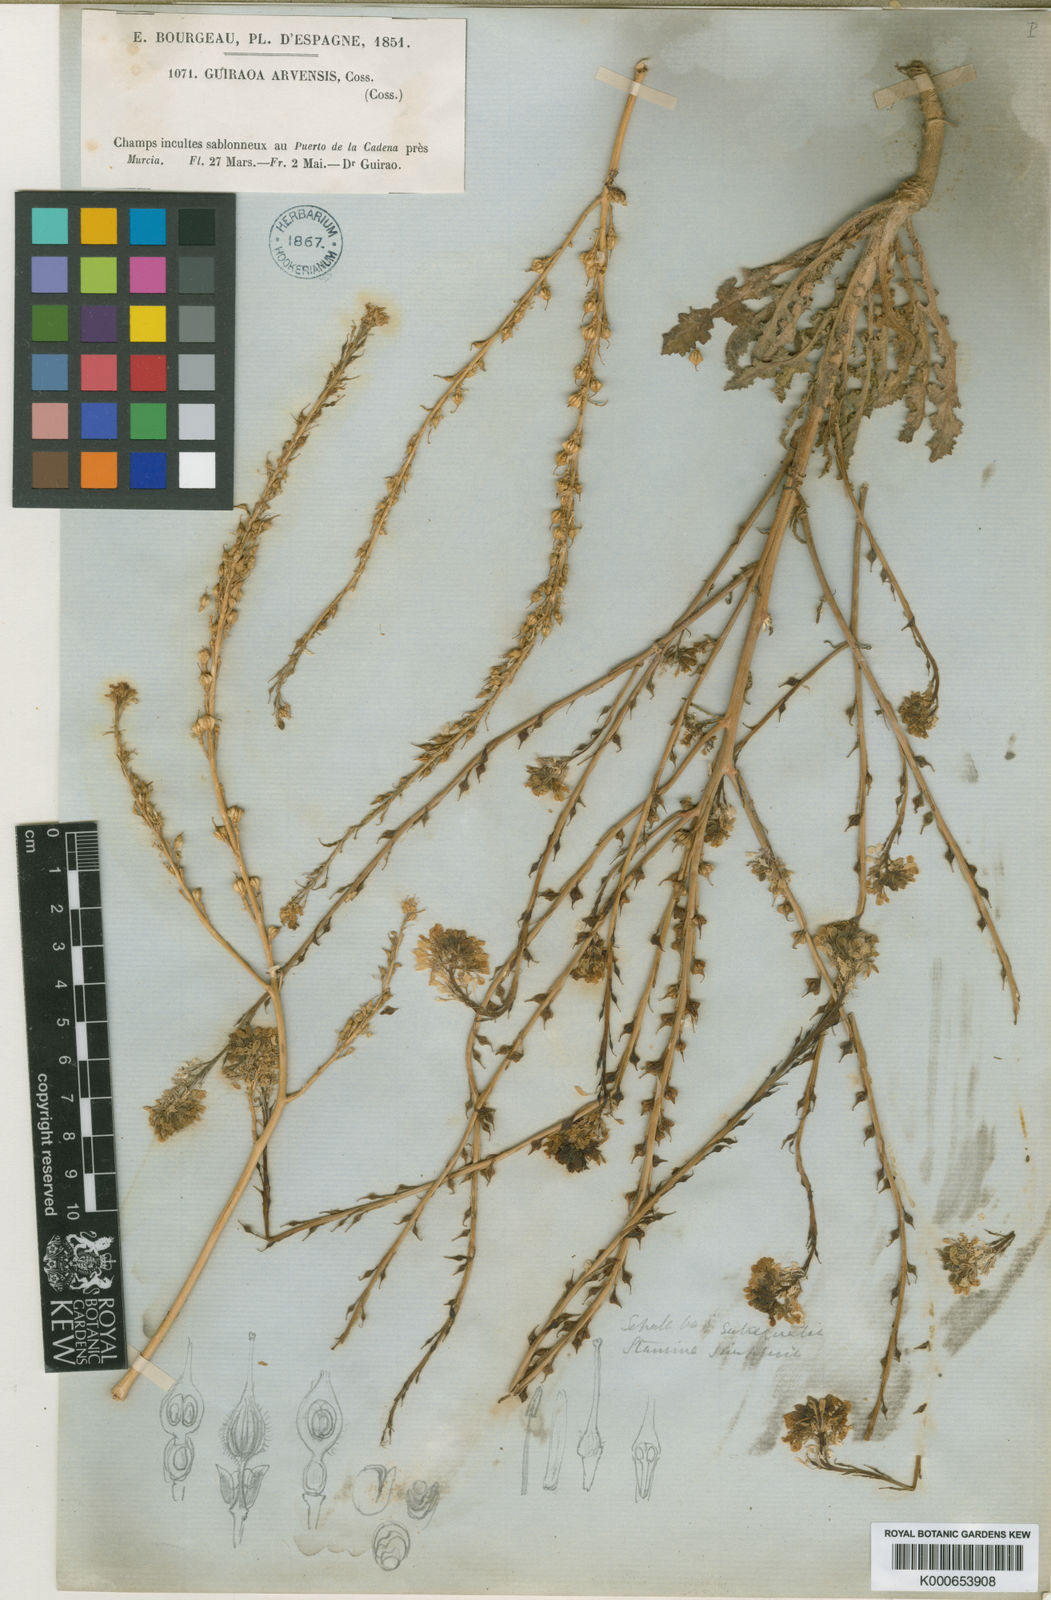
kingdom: Plantae
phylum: Tracheophyta
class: Magnoliopsida
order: Brassicales
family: Brassicaceae
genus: Guiraoa
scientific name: Guiraoa arvensis
